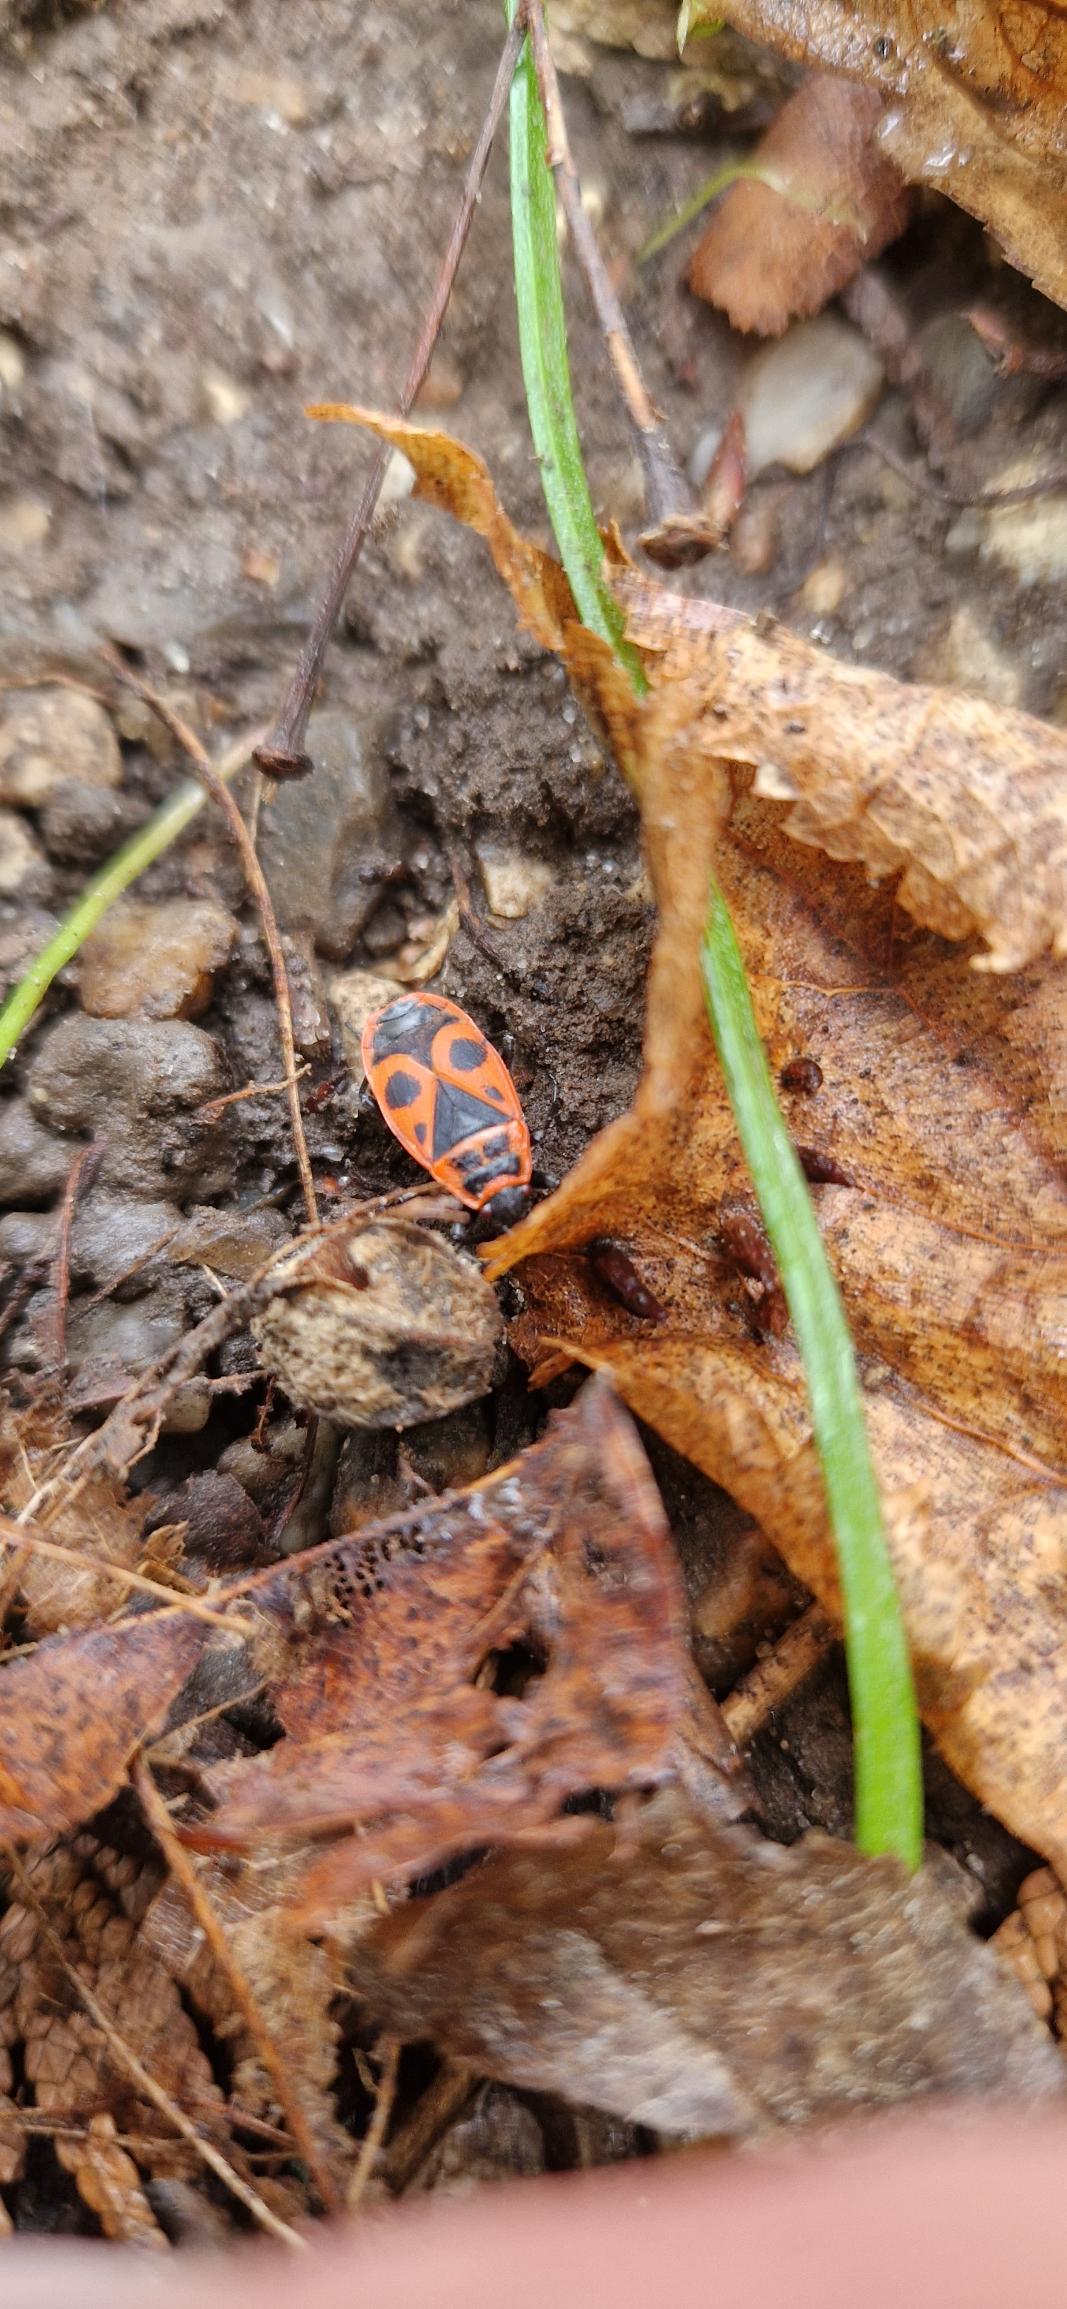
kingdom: Animalia
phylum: Arthropoda
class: Insecta
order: Hemiptera
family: Pyrrhocoridae
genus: Pyrrhocoris
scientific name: Pyrrhocoris apterus
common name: Ildtæge
